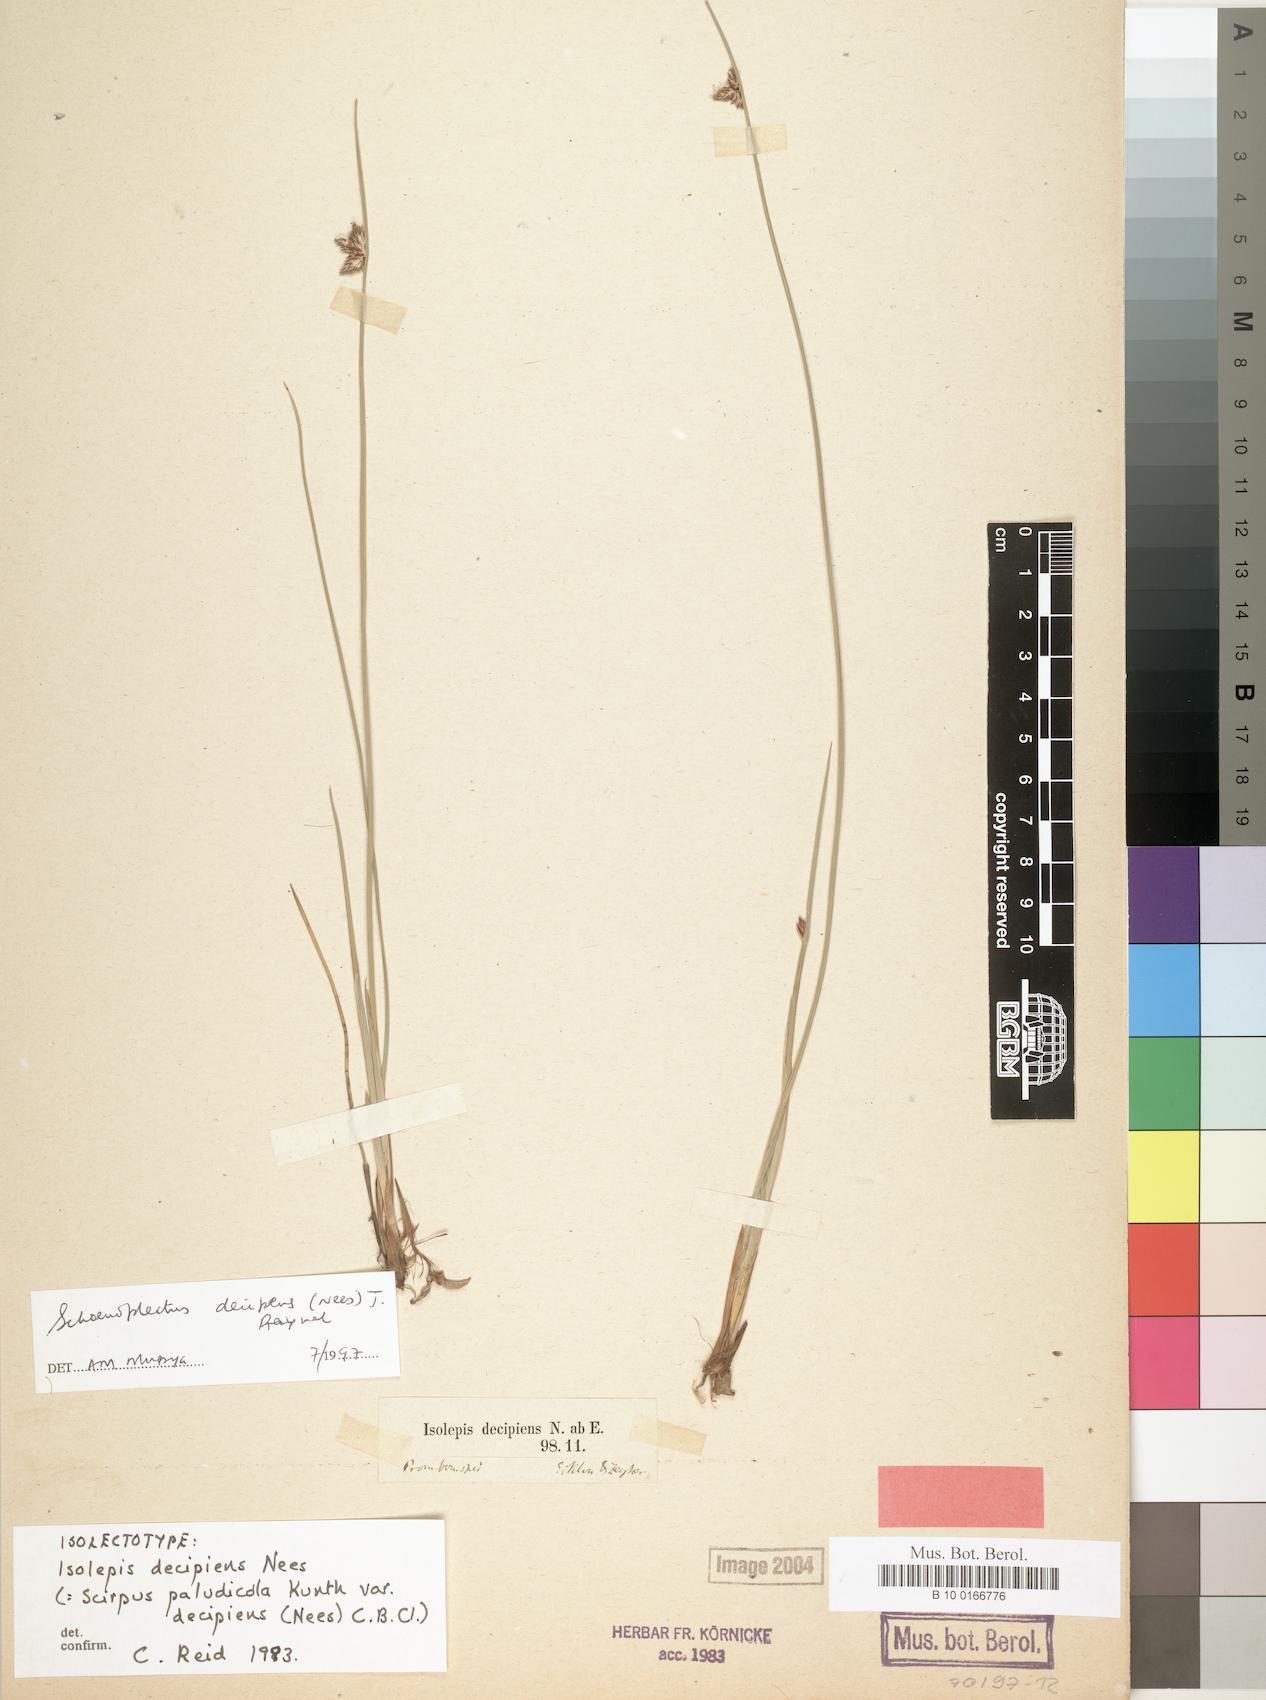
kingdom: Plantae
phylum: Tracheophyta
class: Liliopsida
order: Poales
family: Cyperaceae
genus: Schoenoplectiella
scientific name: Schoenoplectiella decipiens
